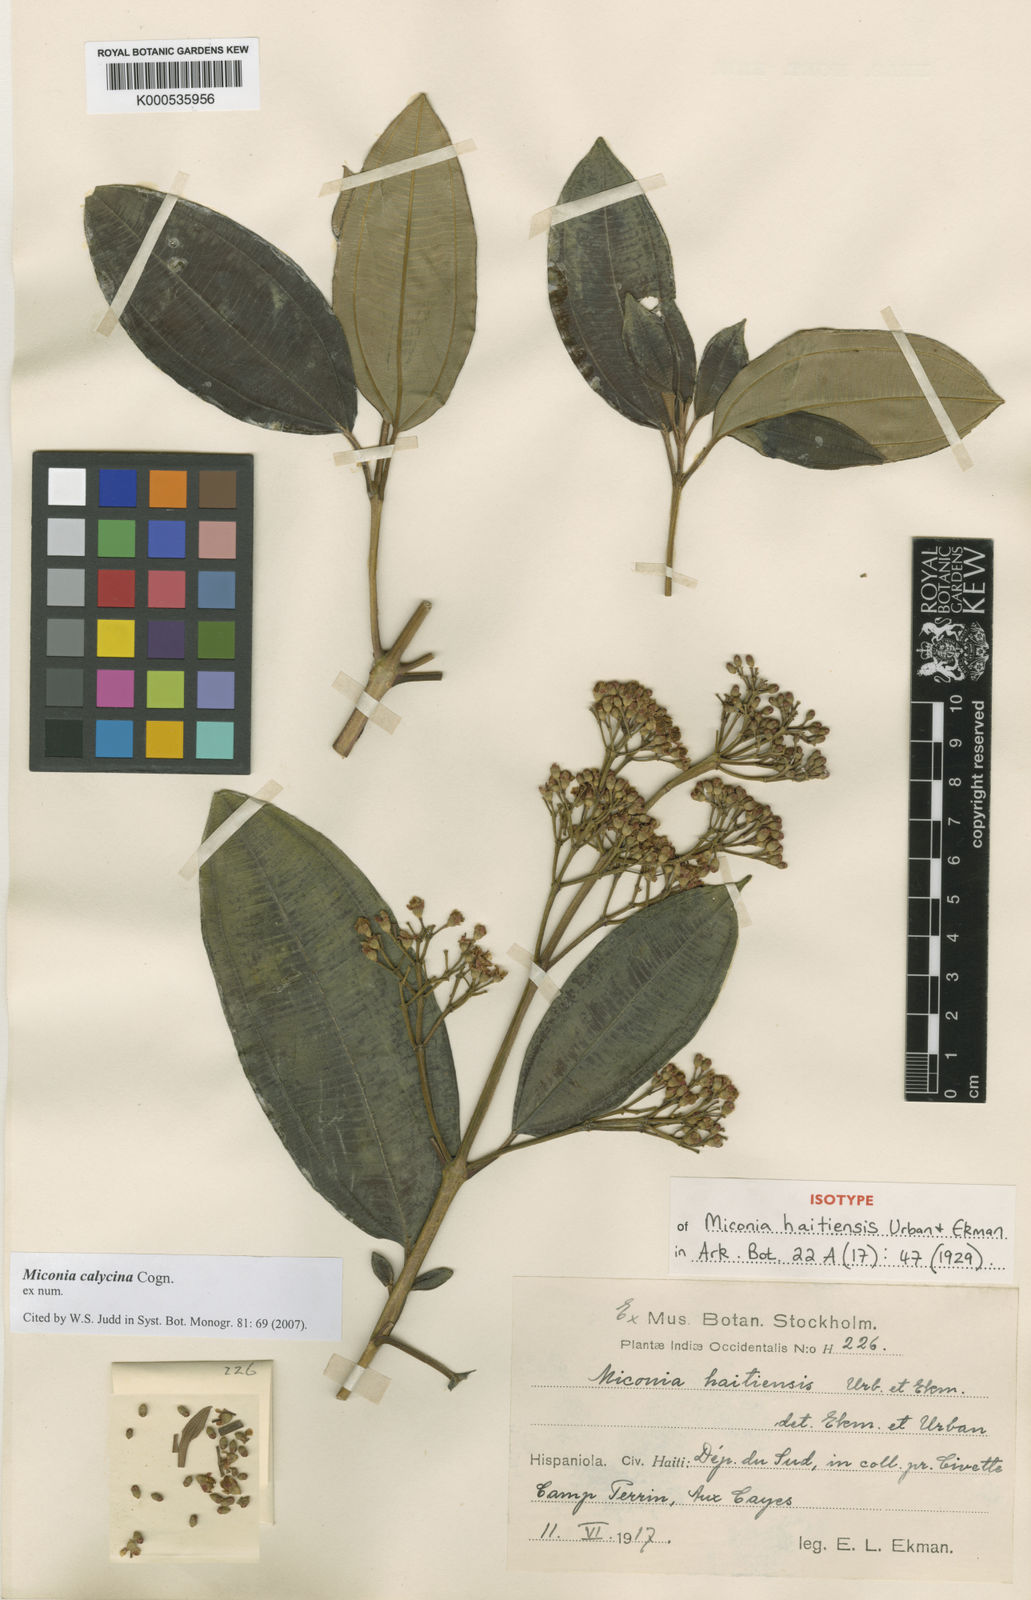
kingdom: Plantae
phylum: Tracheophyta
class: Magnoliopsida
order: Myrtales
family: Melastomataceae
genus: Miconia
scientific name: Miconia calycina
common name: Forest johnnyberry
